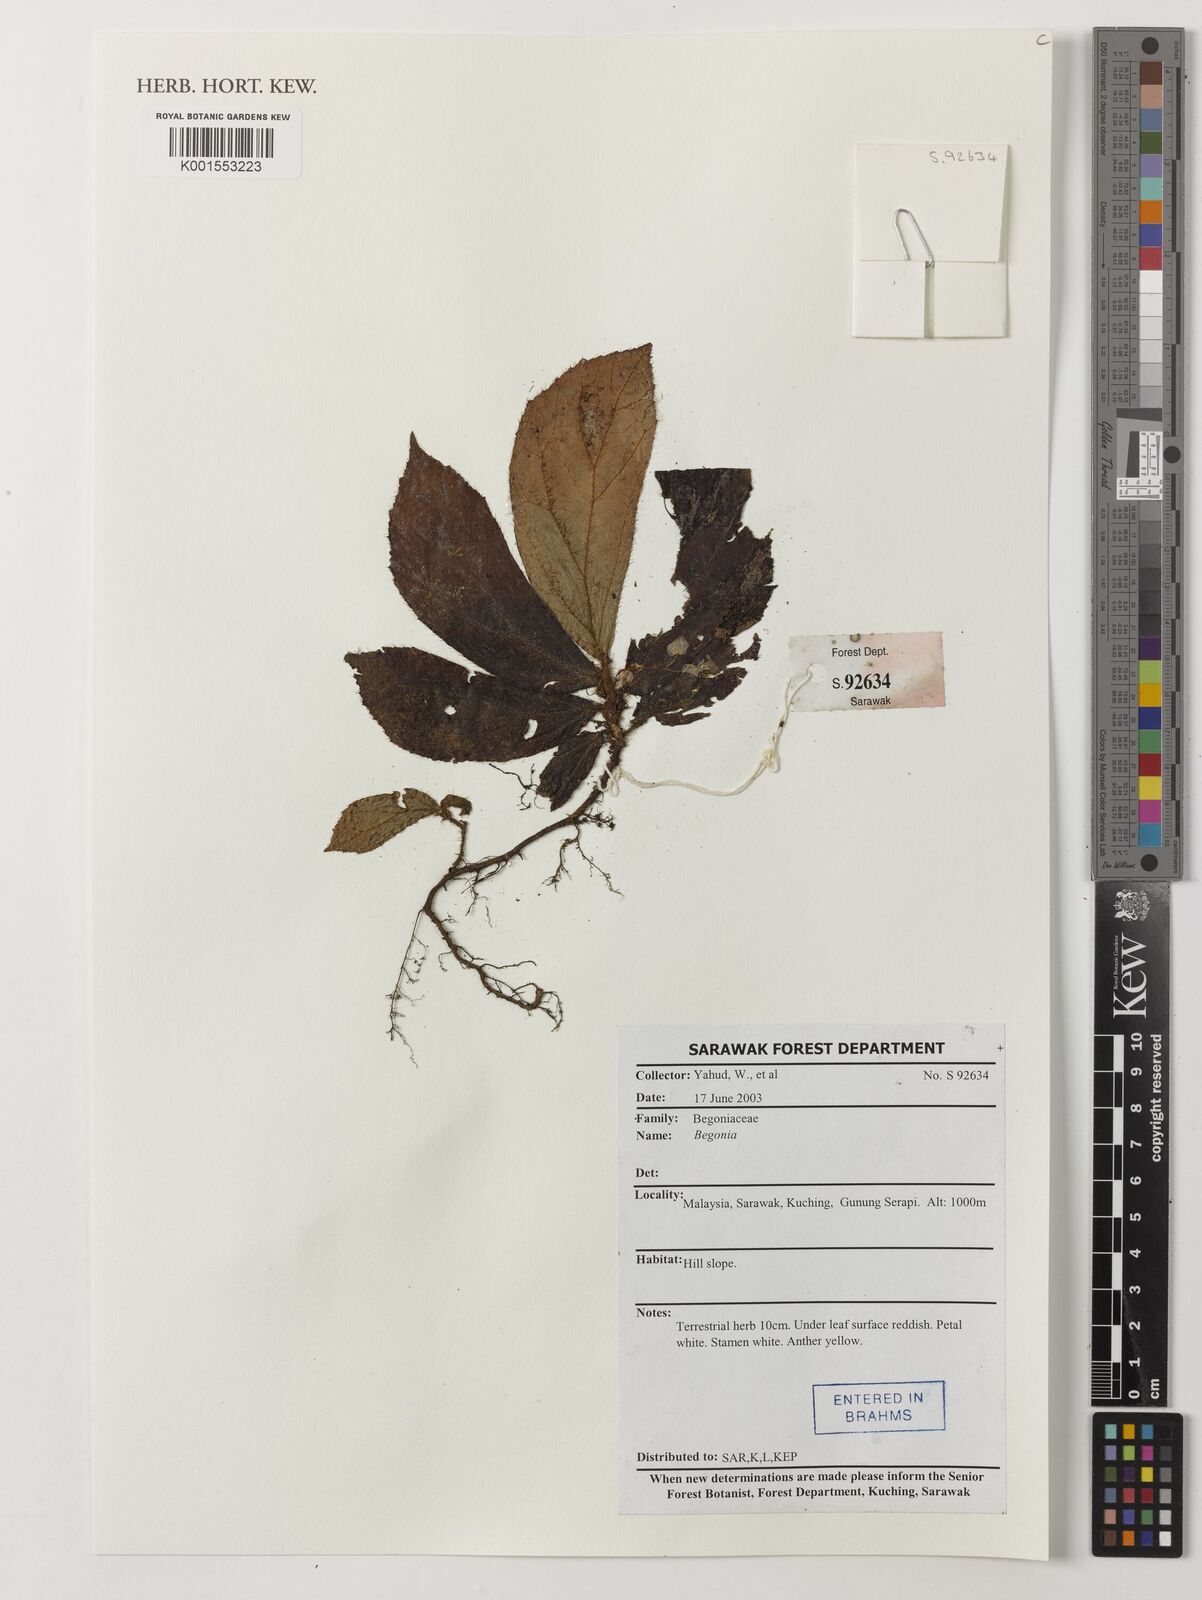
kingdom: Plantae
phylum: Tracheophyta
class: Magnoliopsida
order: Cucurbitales
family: Begoniaceae
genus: Begonia
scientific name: Begonia
